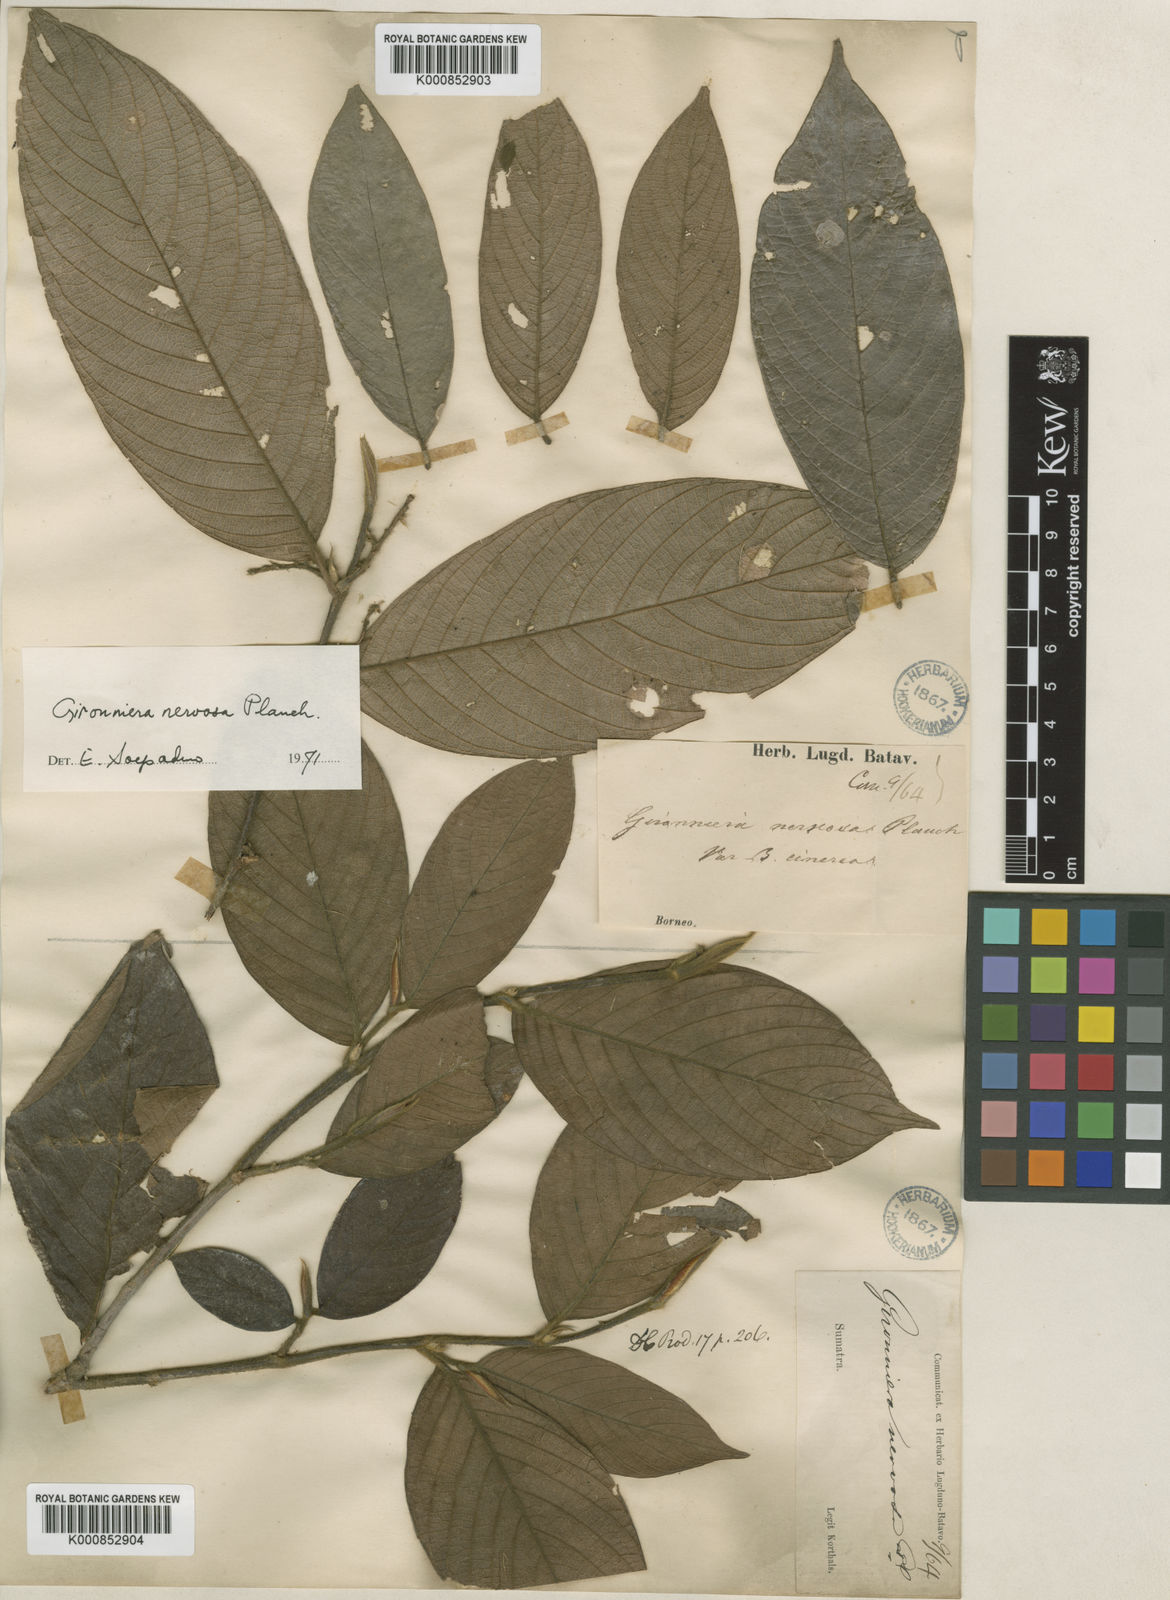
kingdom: Plantae
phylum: Tracheophyta
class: Magnoliopsida
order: Rosales
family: Cannabaceae
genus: Gironniera
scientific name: Gironniera nervosa
